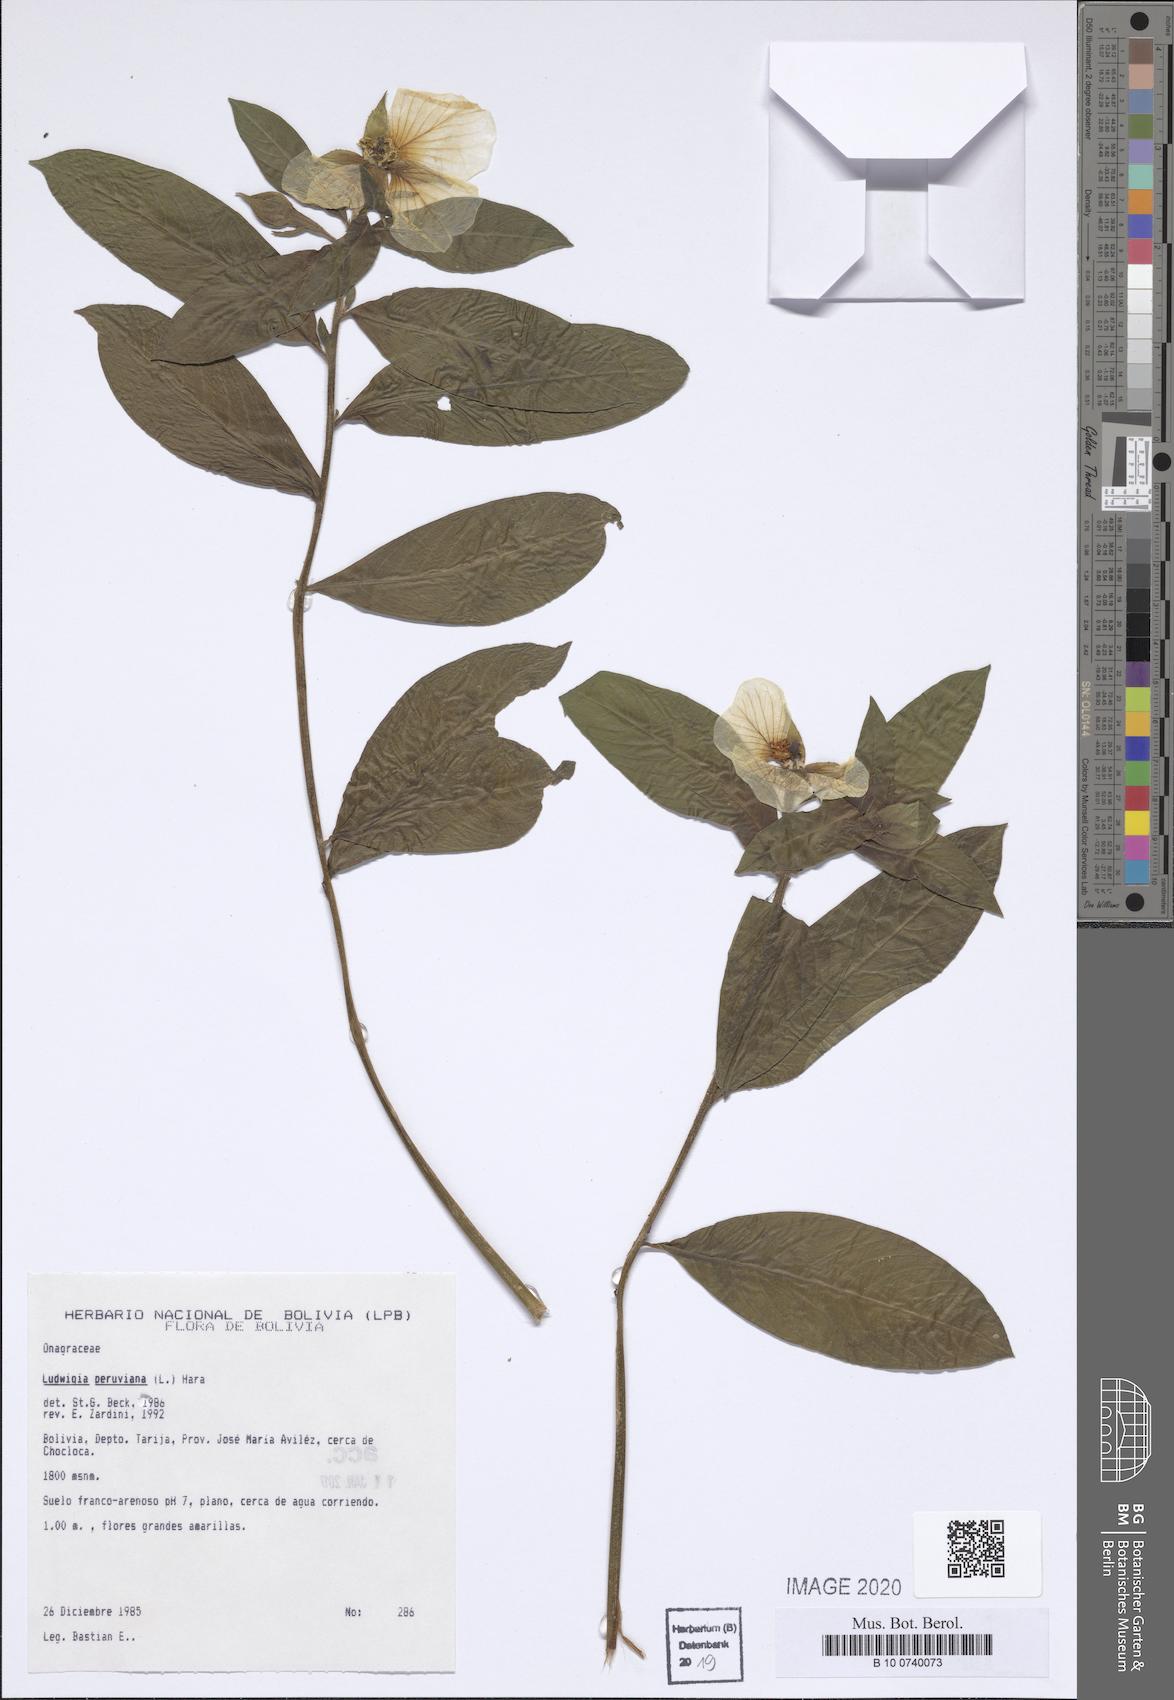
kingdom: Plantae
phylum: Tracheophyta
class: Magnoliopsida
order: Myrtales
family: Onagraceae
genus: Ludwigia
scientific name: Ludwigia peruviana
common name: Peruvian primrose-willow
